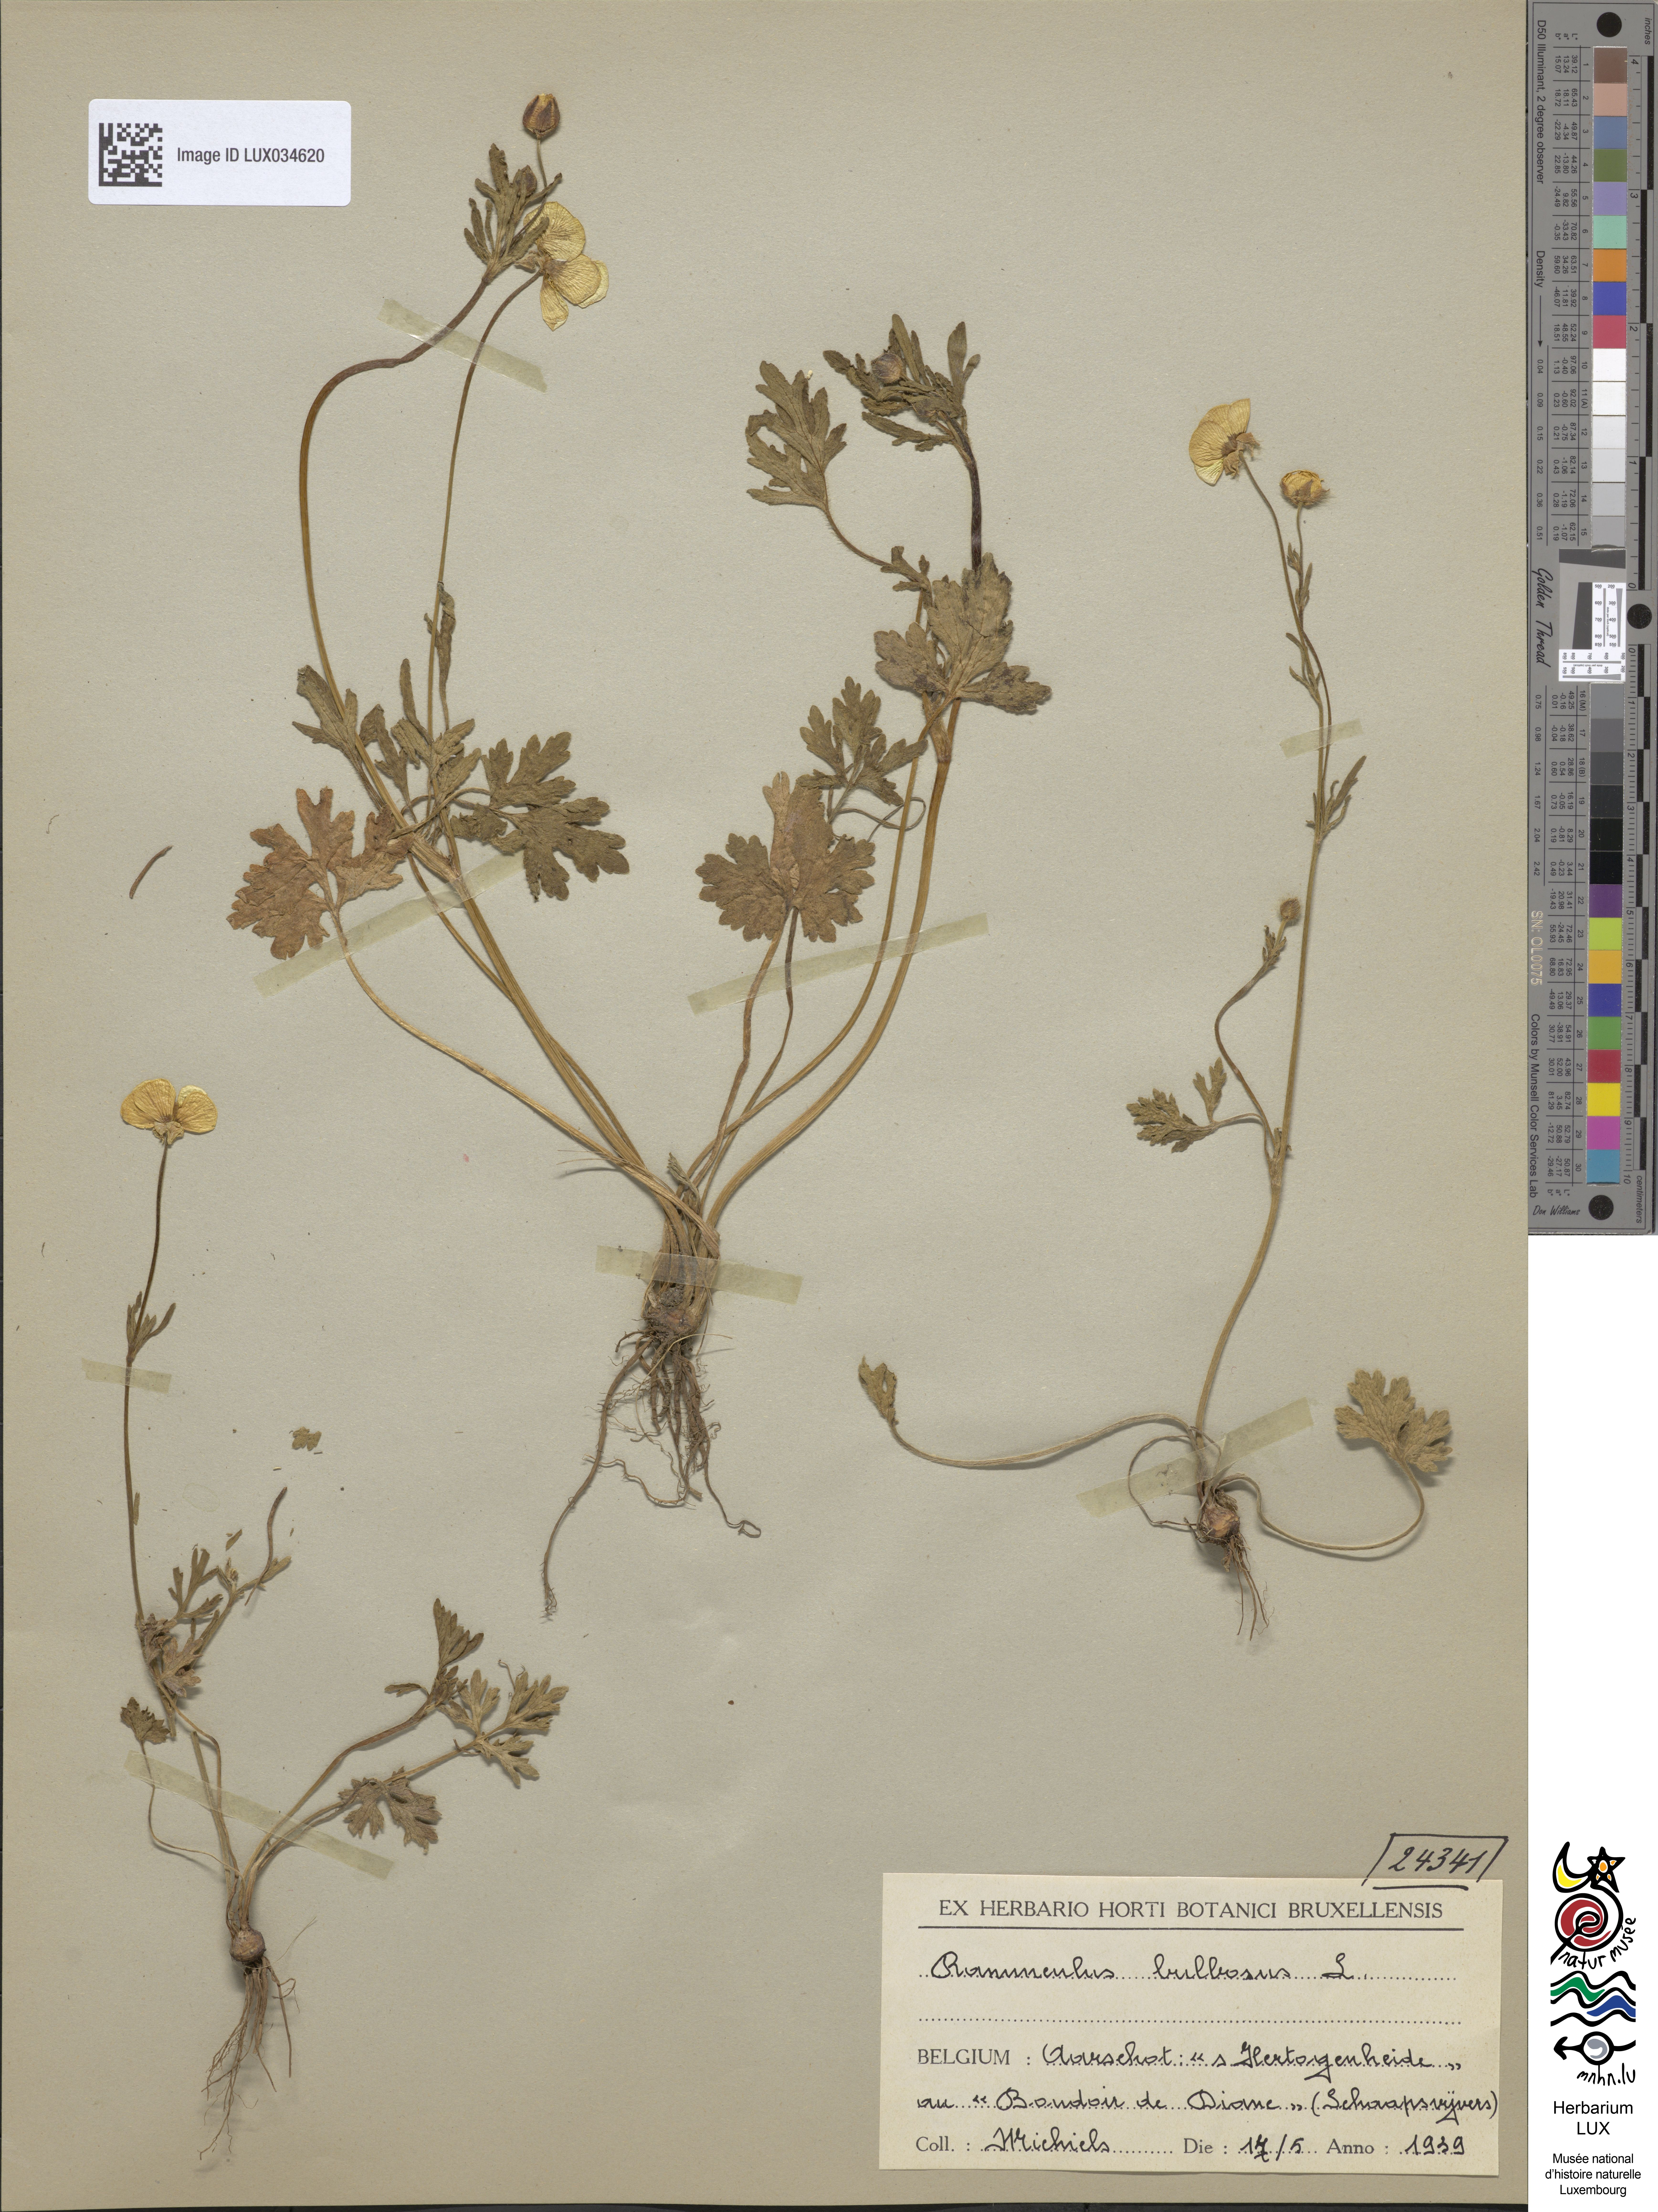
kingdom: Plantae
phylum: Tracheophyta
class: Magnoliopsida
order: Ranunculales
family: Ranunculaceae
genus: Ranunculus
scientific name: Ranunculus bulbosus
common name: Bulbous buttercup
